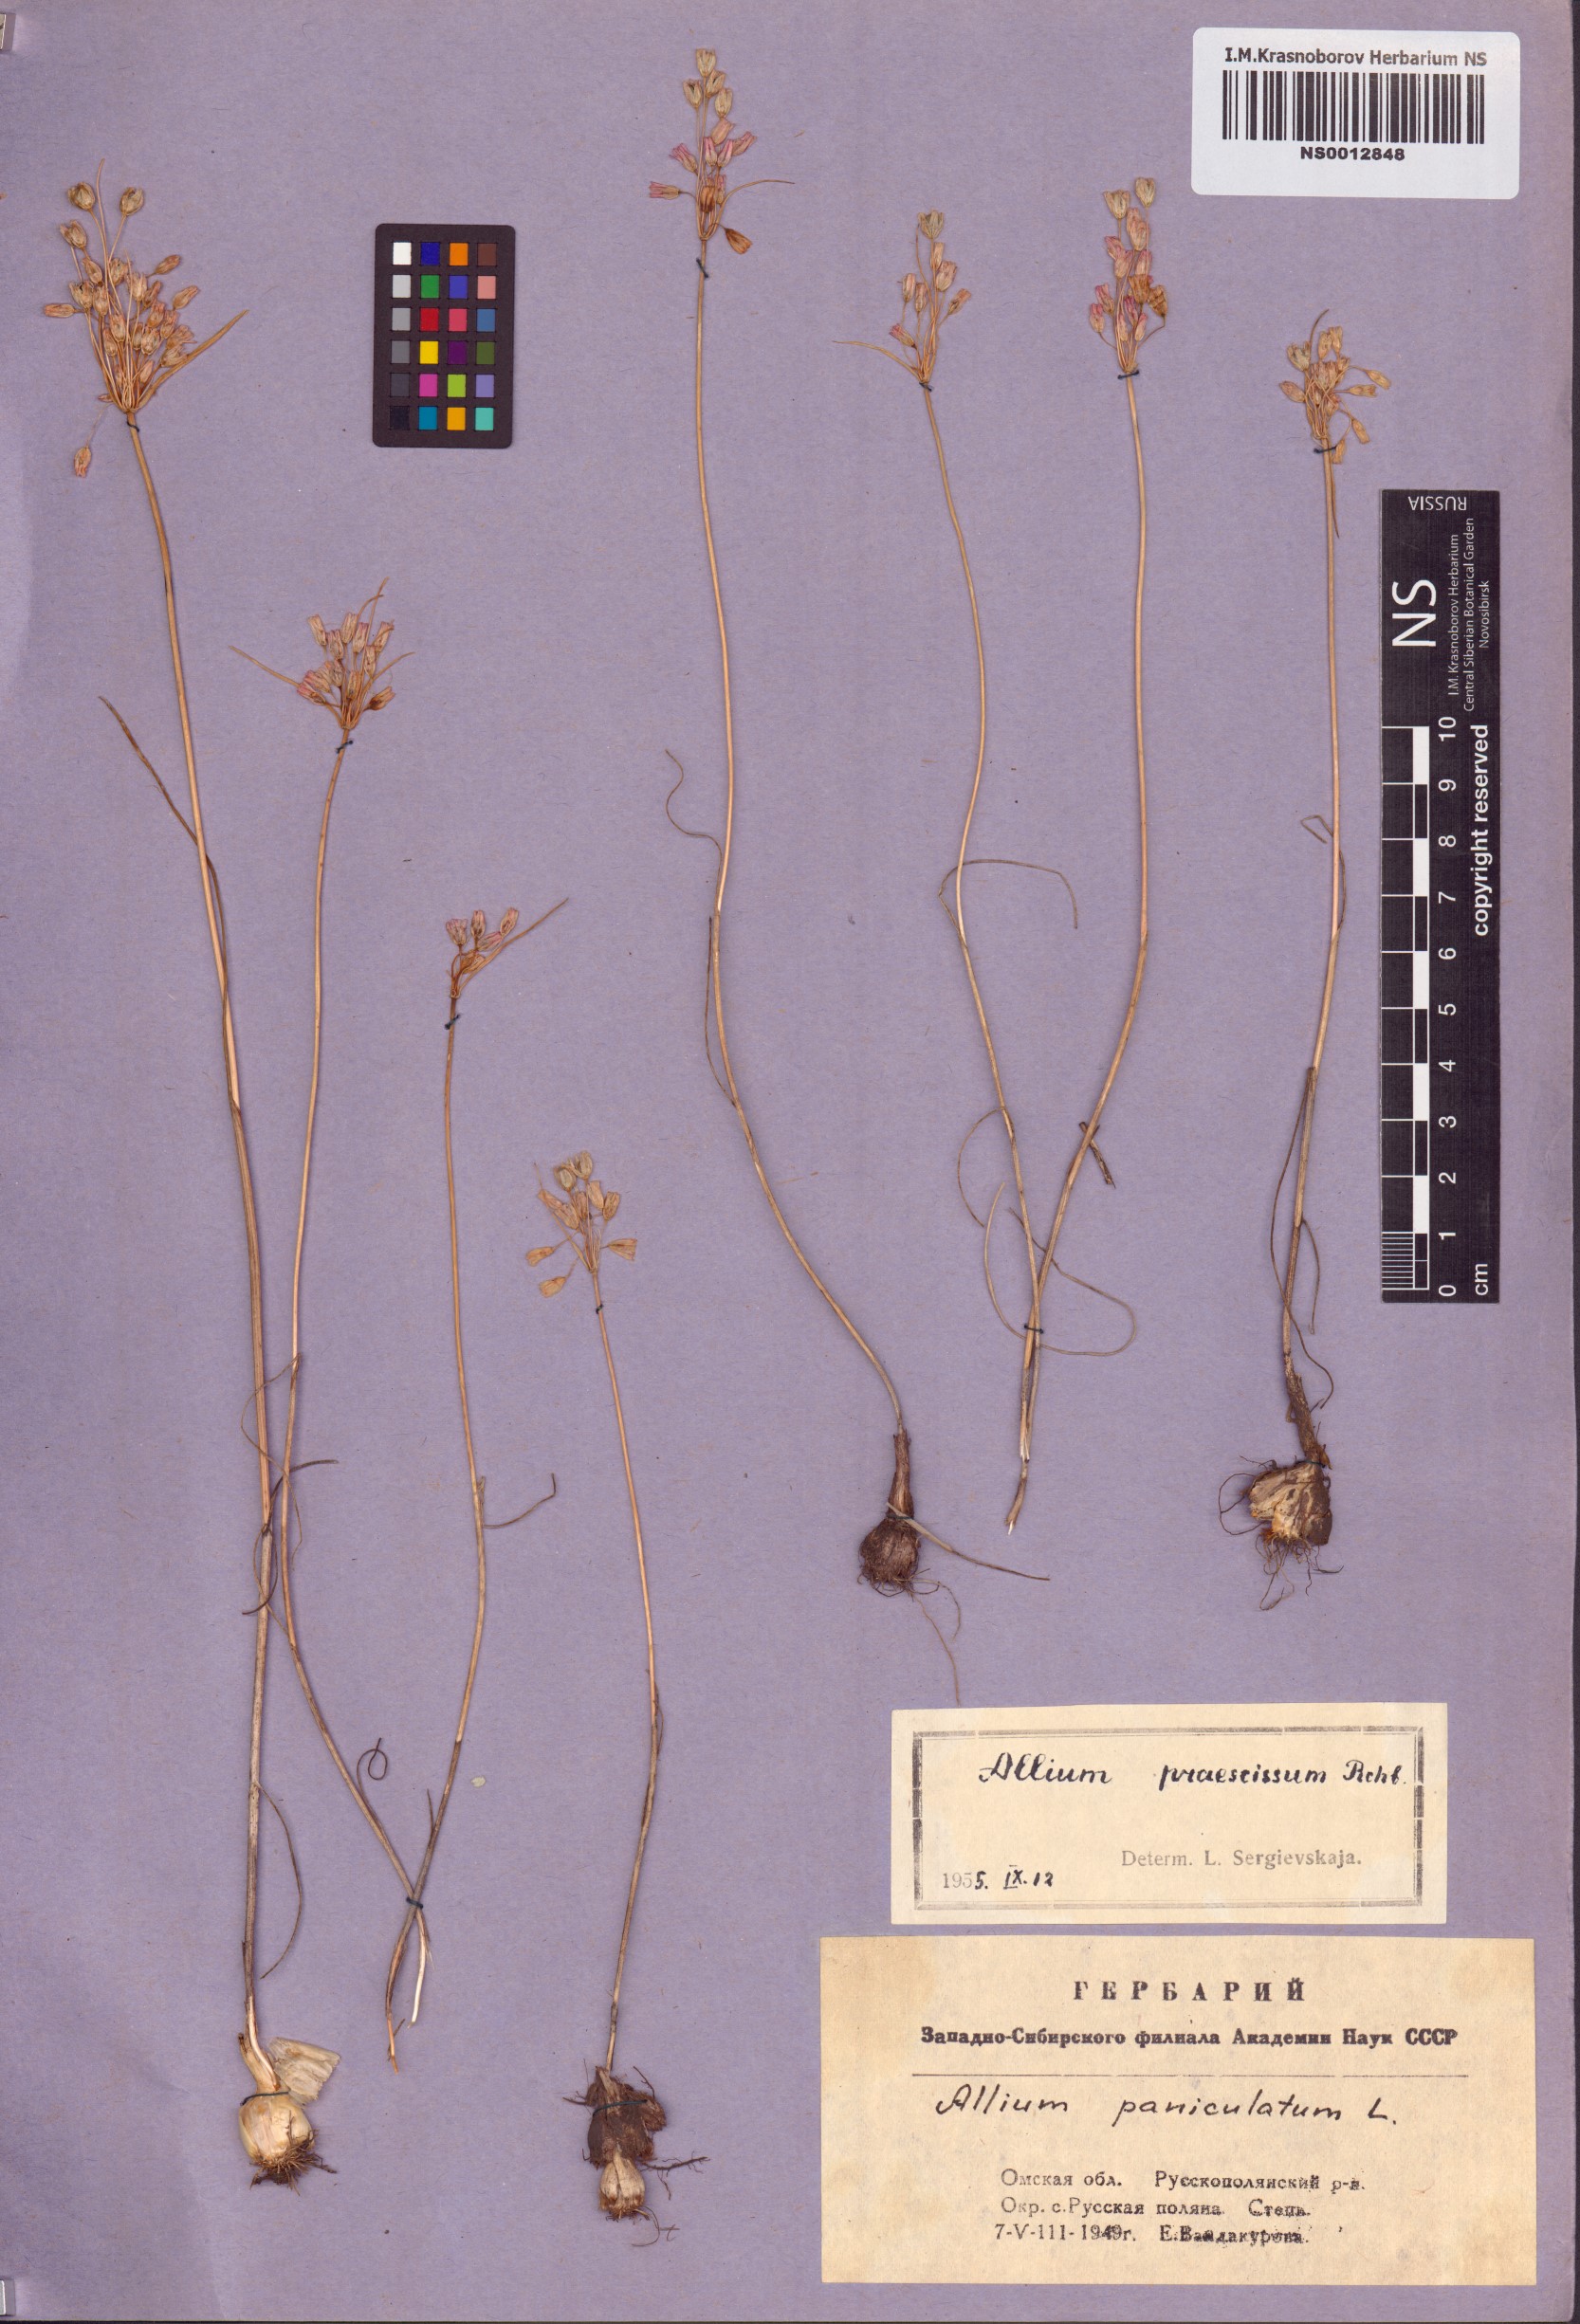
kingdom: Plantae
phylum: Tracheophyta
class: Liliopsida
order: Asparagales
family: Amaryllidaceae
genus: Allium
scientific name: Allium paniculatum
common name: Pale garlic
